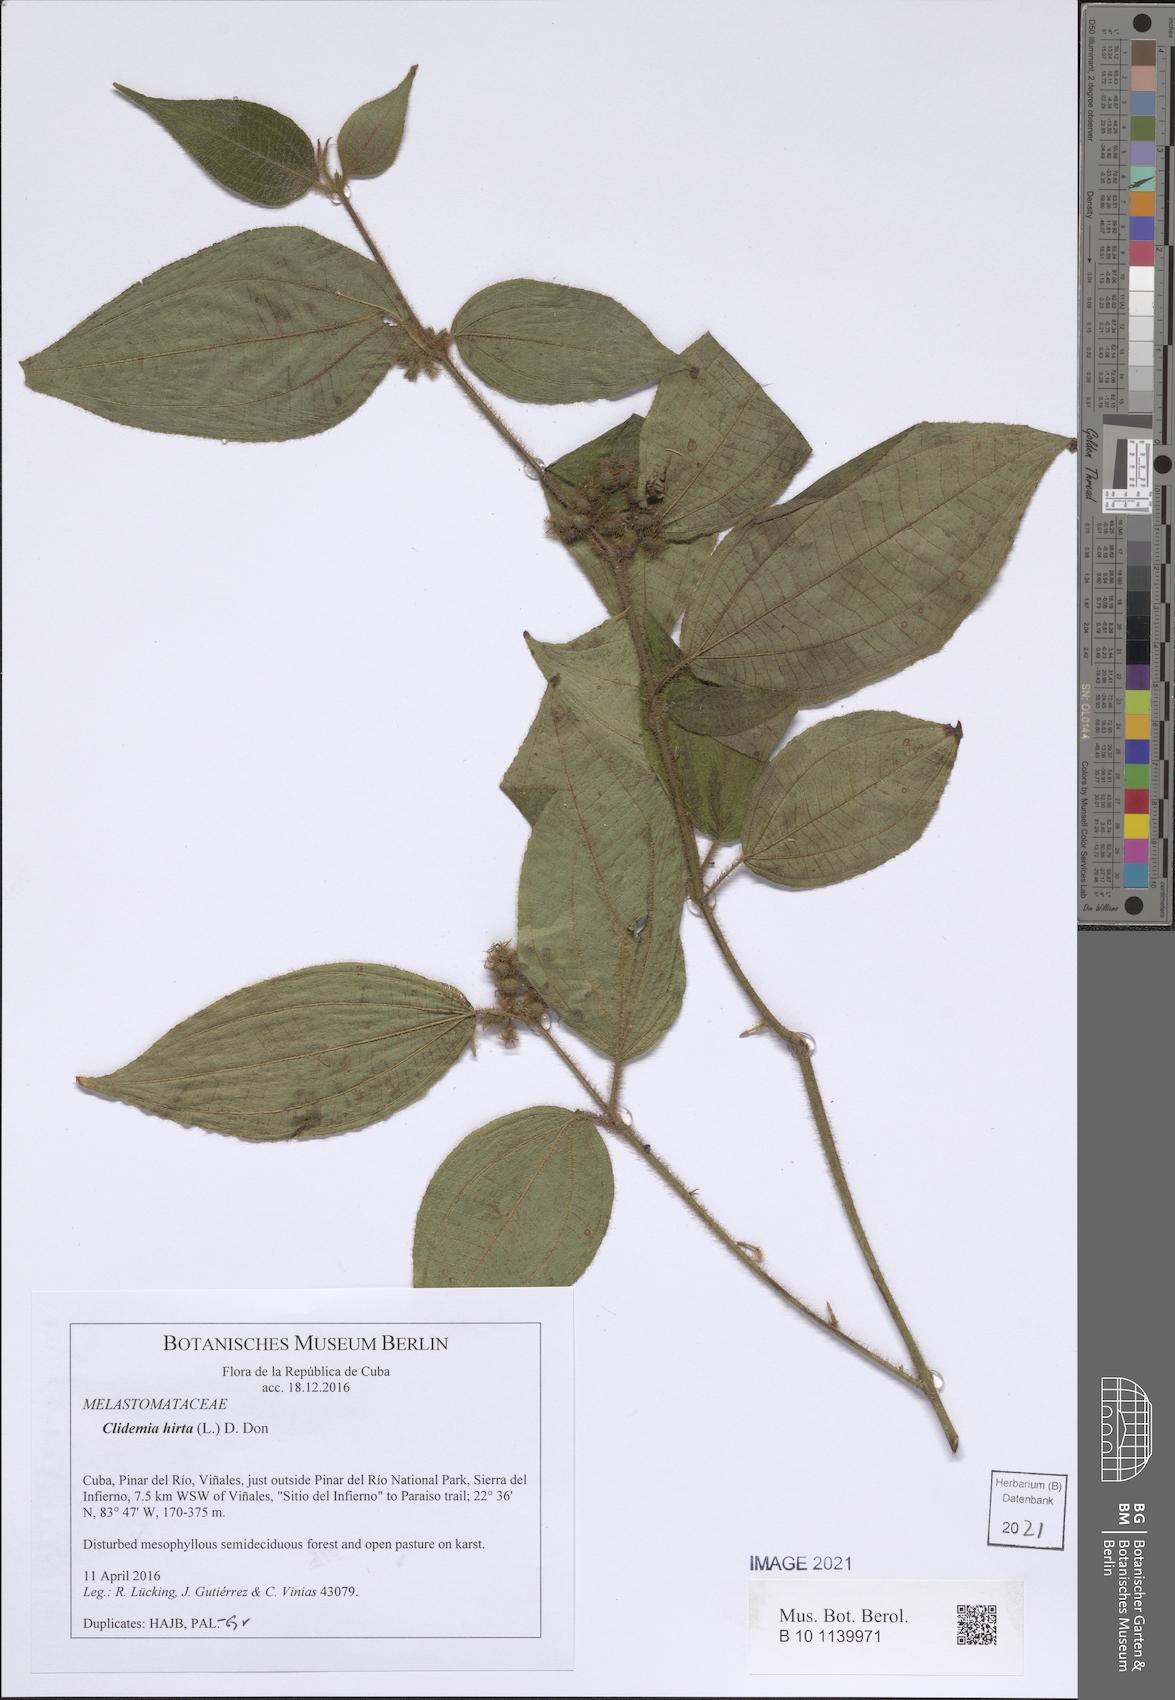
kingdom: Plantae
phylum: Tracheophyta
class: Magnoliopsida
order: Myrtales
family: Melastomataceae
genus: Miconia
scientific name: Miconia crenata
